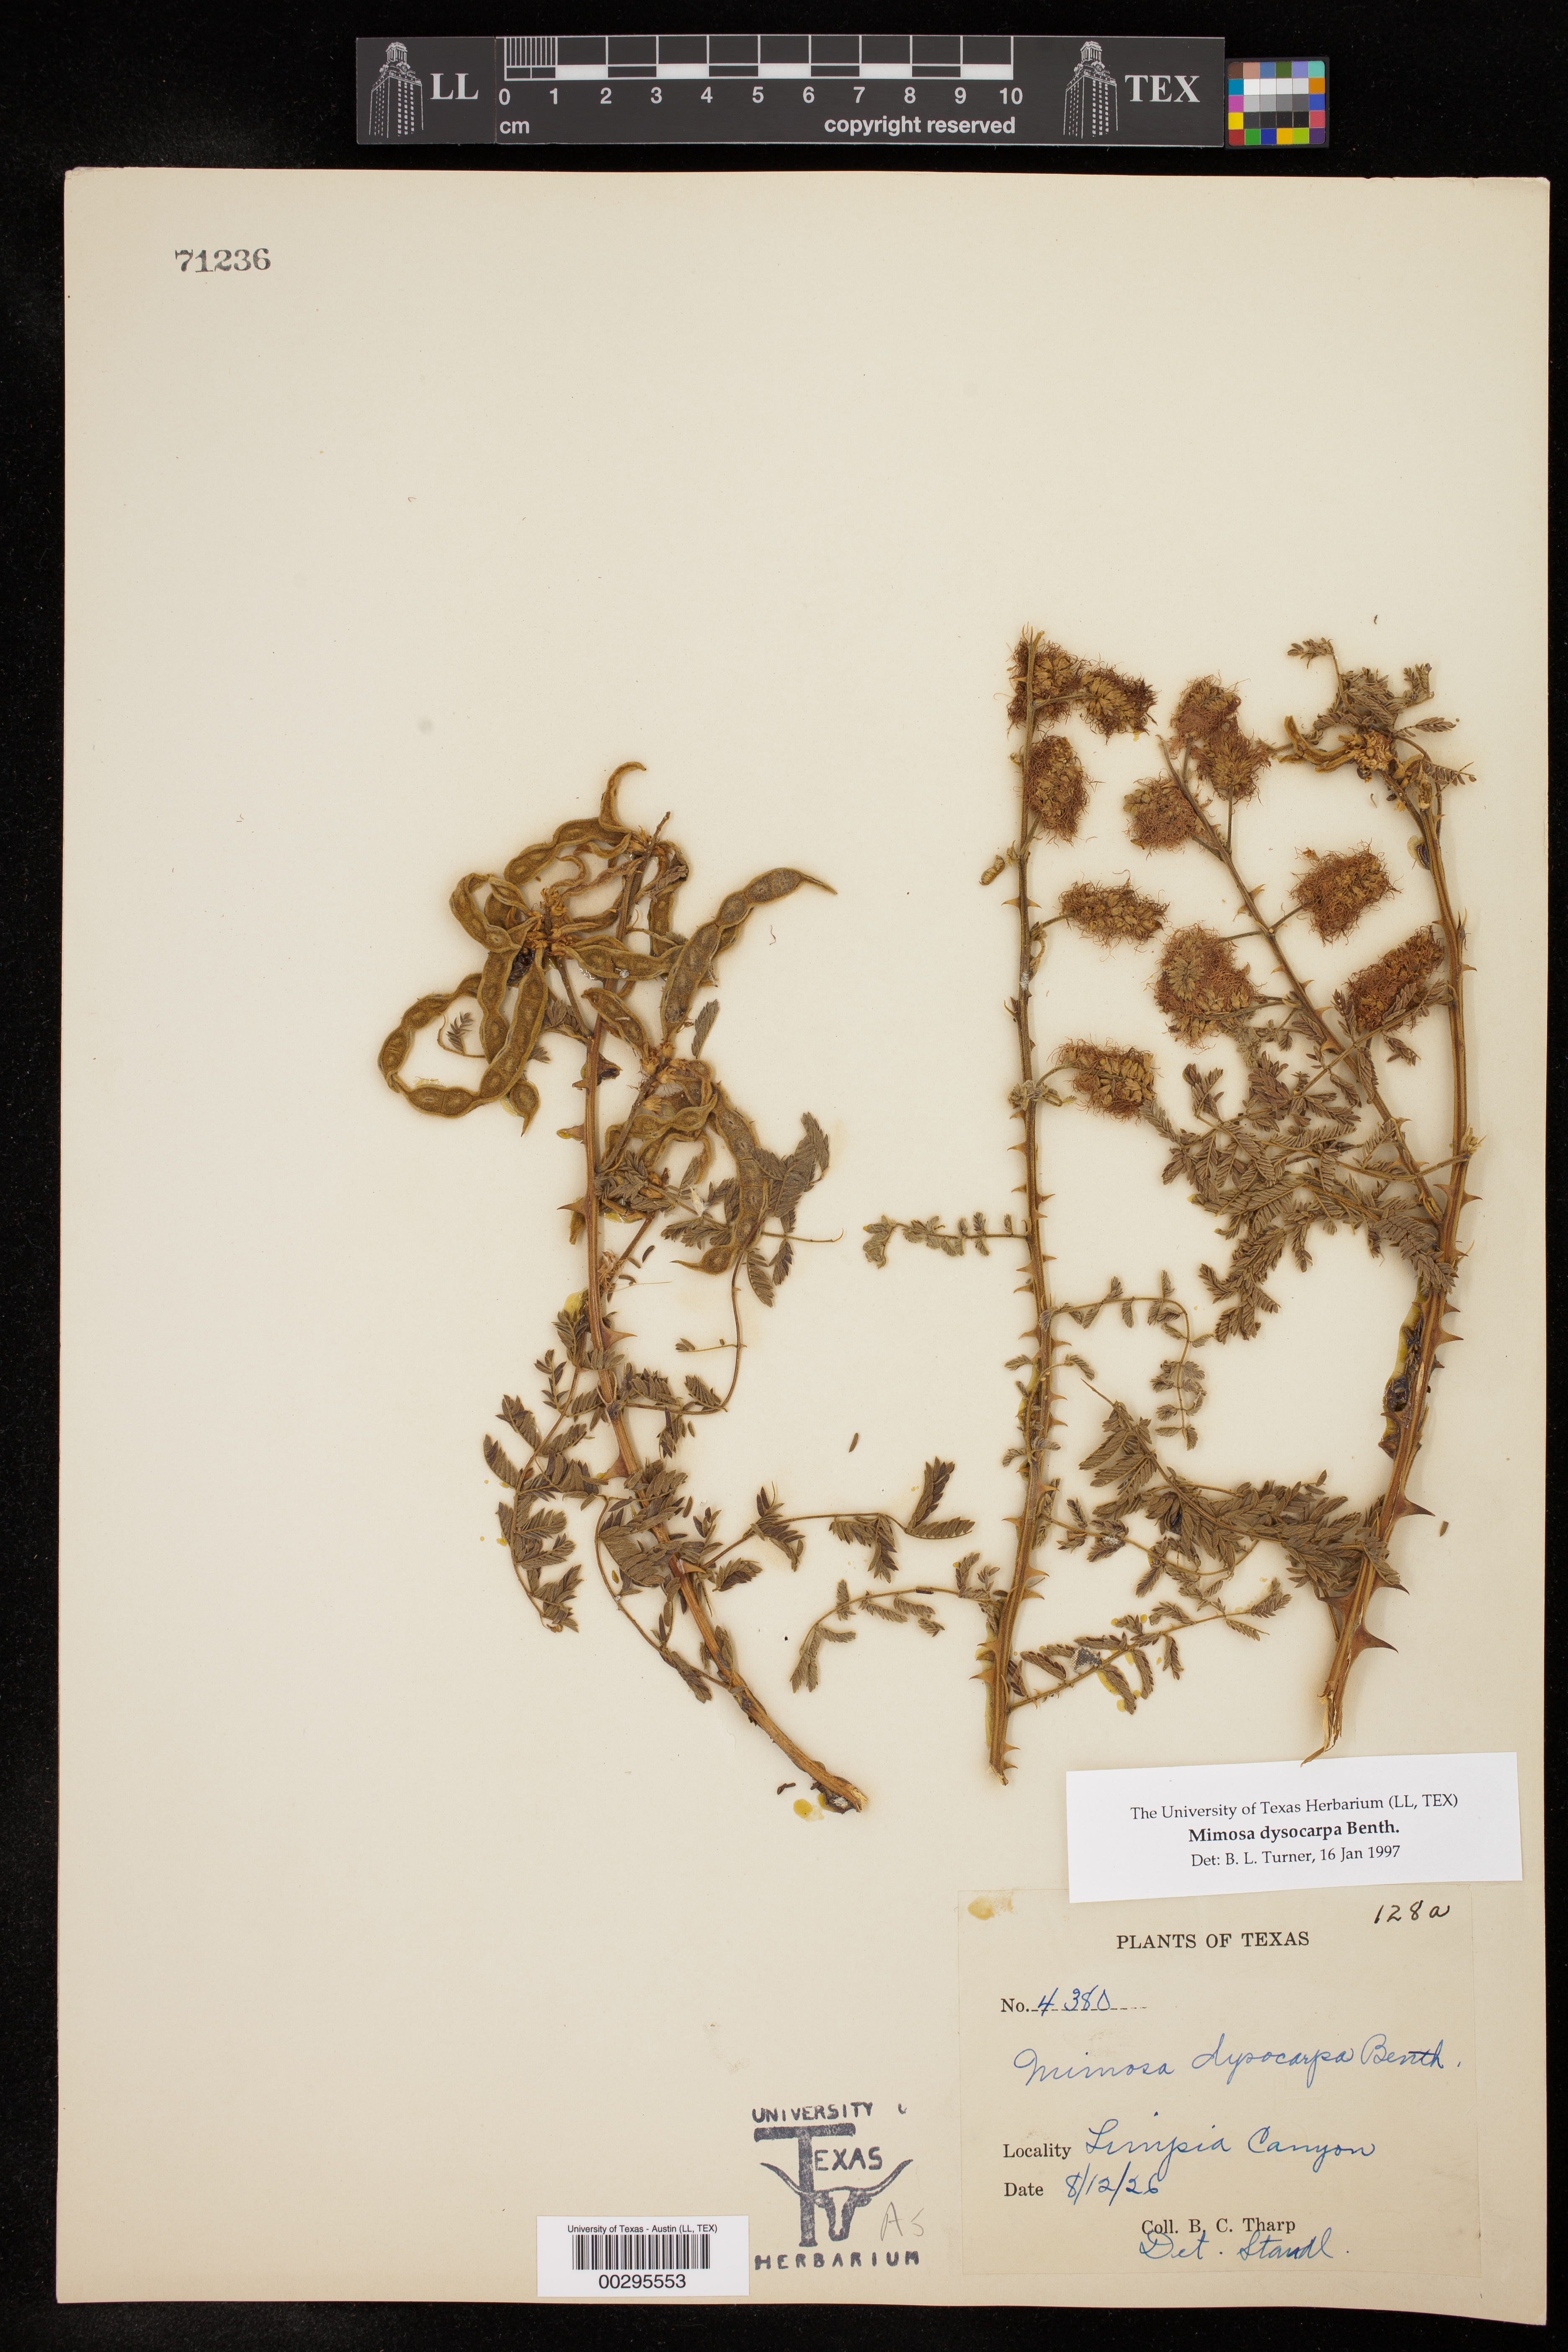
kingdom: Plantae
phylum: Tracheophyta
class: Magnoliopsida
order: Fabales
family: Fabaceae
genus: Mimosa
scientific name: Mimosa dysocarpa
